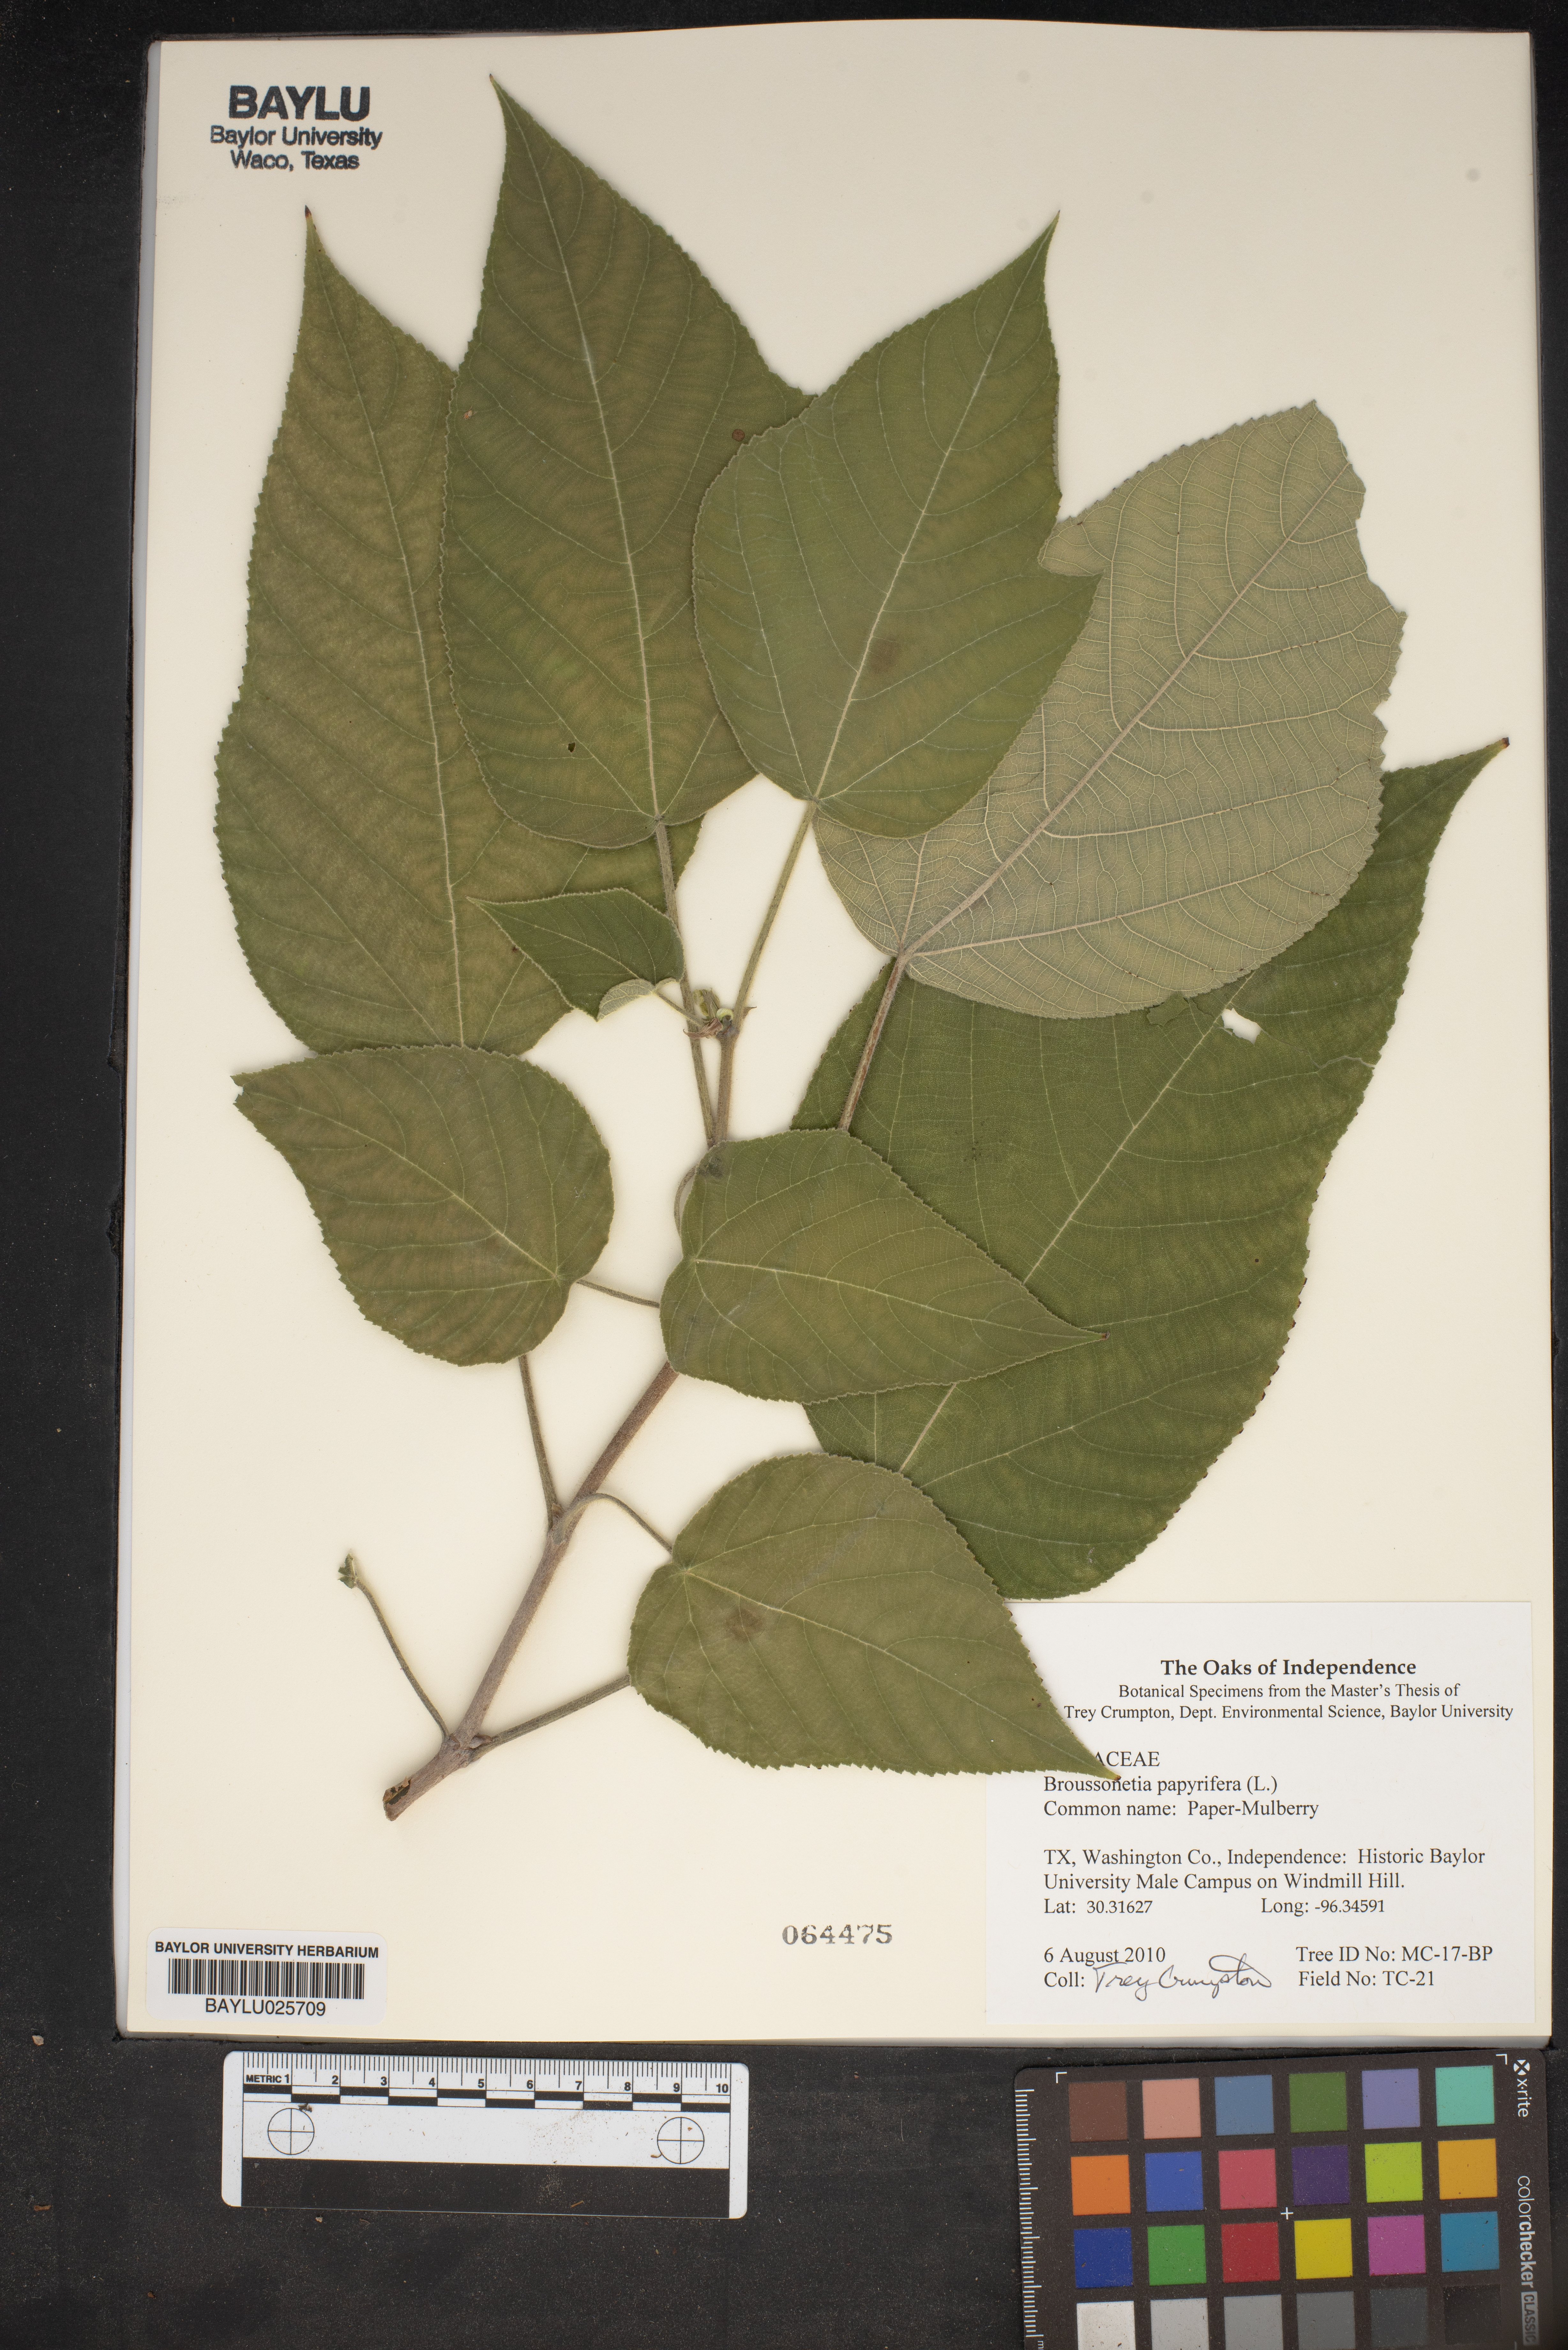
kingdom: Plantae
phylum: Tracheophyta
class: Magnoliopsida
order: Rosales
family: Moraceae
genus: Broussonetia
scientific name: Broussonetia papyrifera
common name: Paper mulberry
